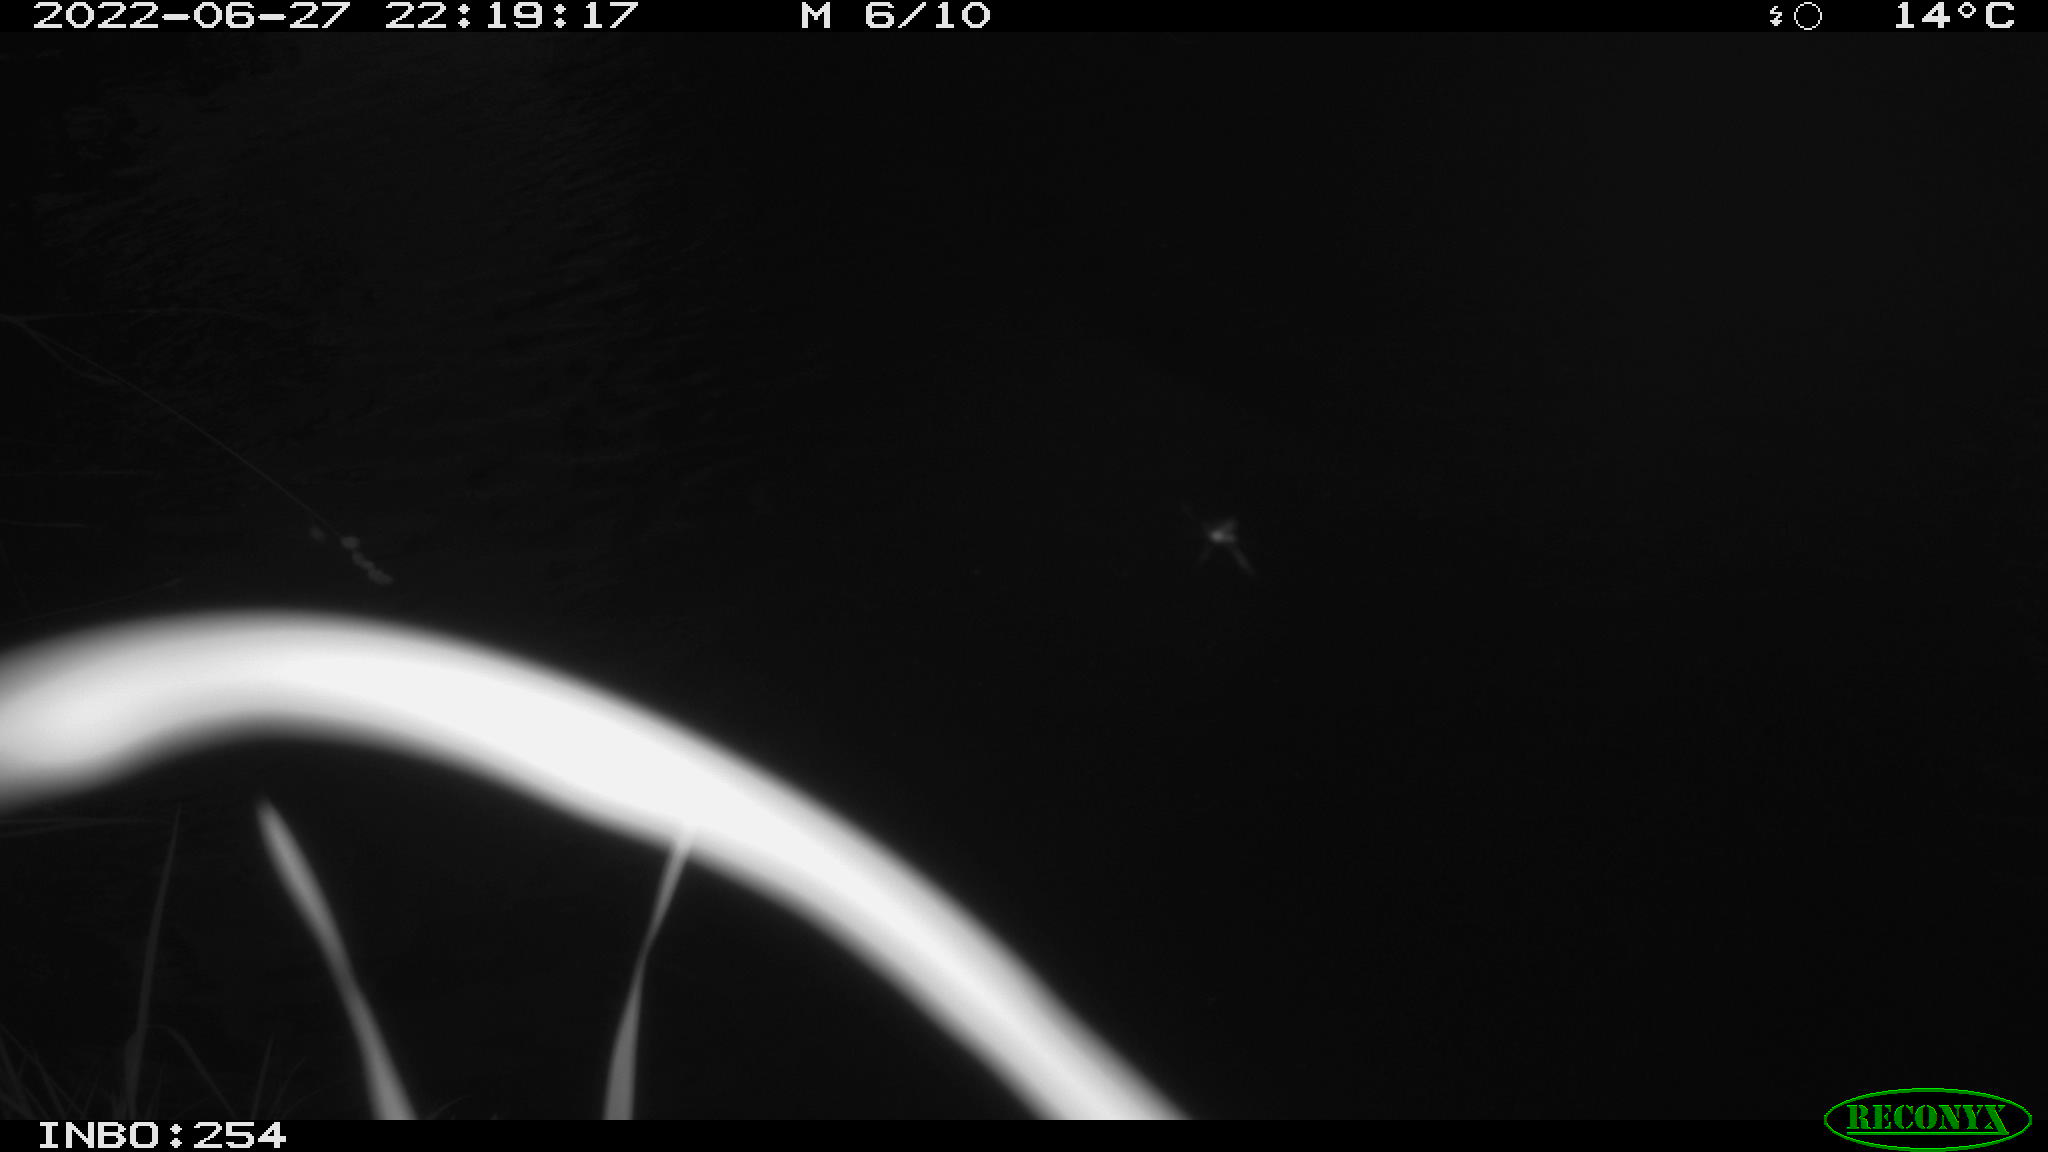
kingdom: Animalia
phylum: Chordata
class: Aves
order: Anseriformes
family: Anatidae
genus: Anas
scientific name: Anas platyrhynchos
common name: Mallard
